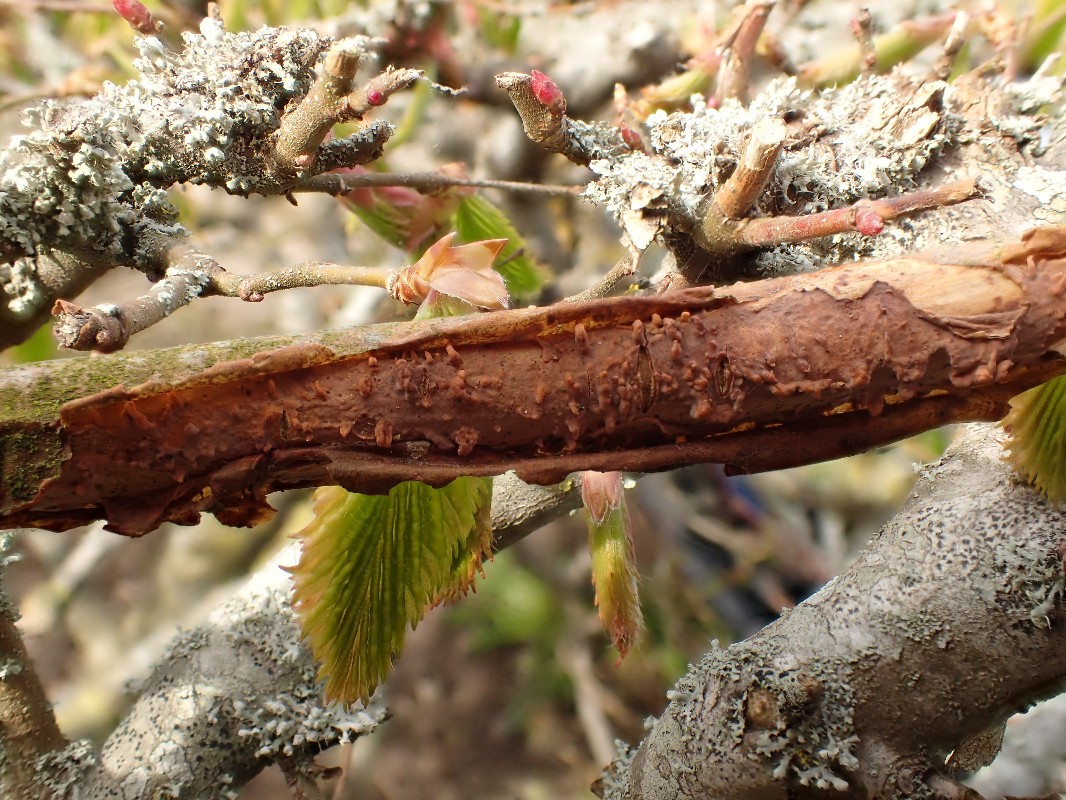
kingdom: Fungi
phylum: Basidiomycota
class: Agaricomycetes
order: Russulales
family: Peniophoraceae
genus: Peniophora
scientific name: Peniophora laeta
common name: tandet voksskind
